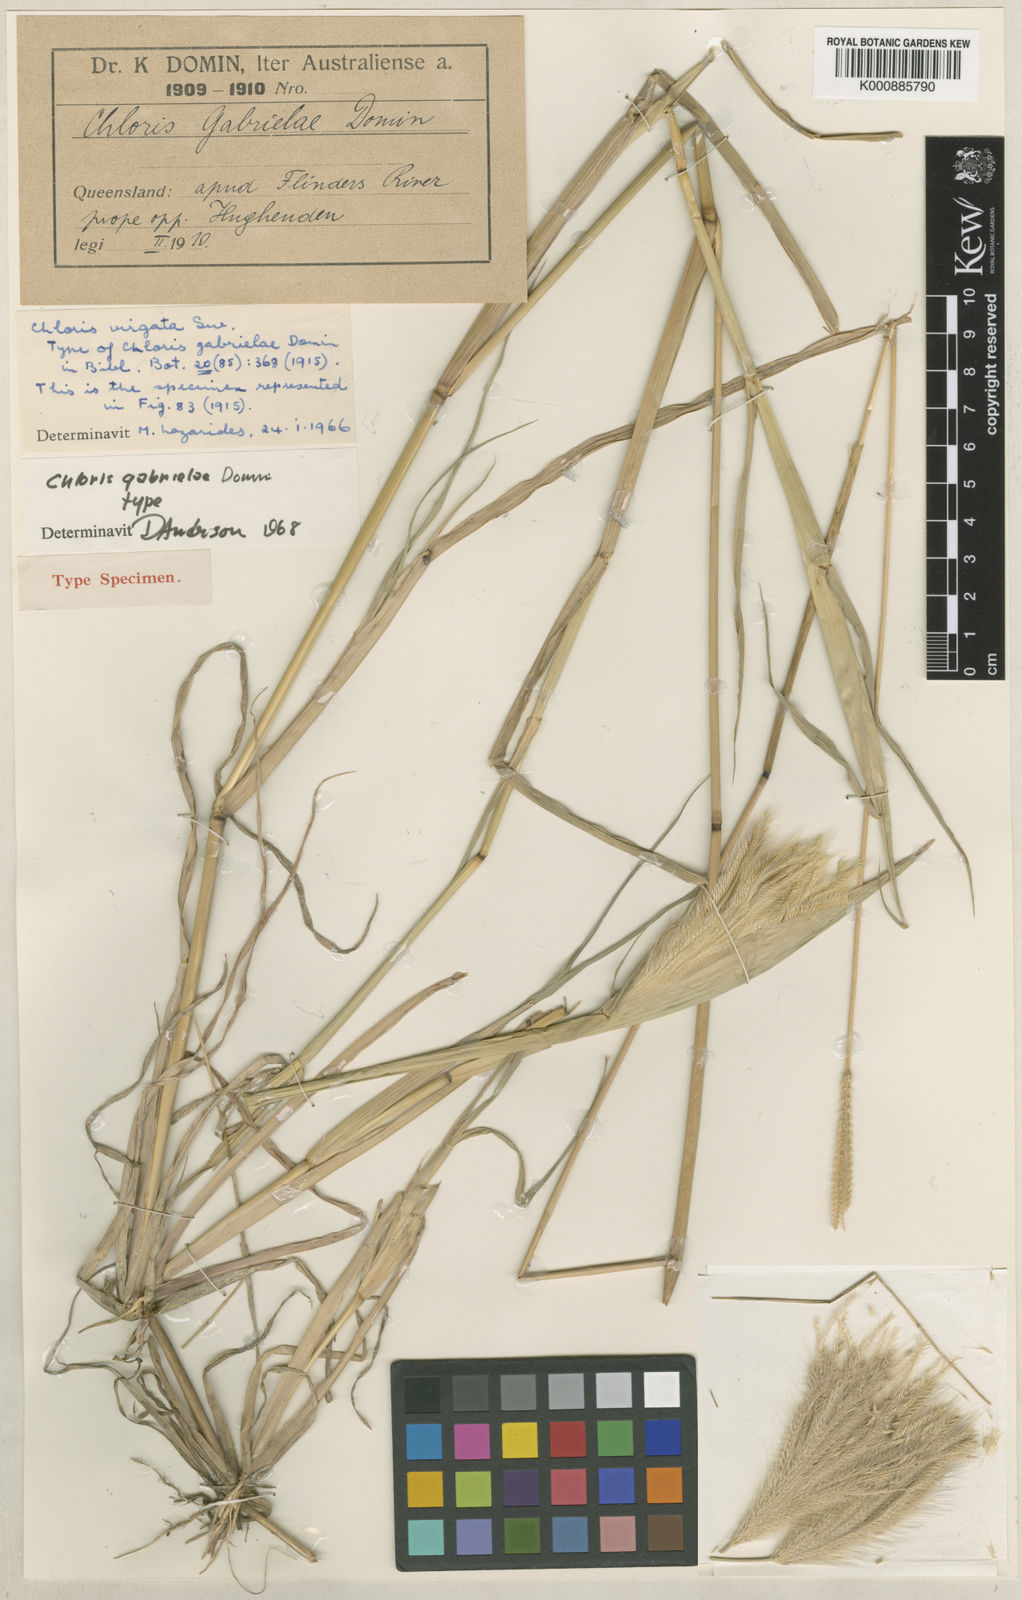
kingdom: Plantae
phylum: Tracheophyta
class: Liliopsida
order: Poales
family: Poaceae
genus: Chloris
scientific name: Chloris virgata
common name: Feathery rhodes-grass
